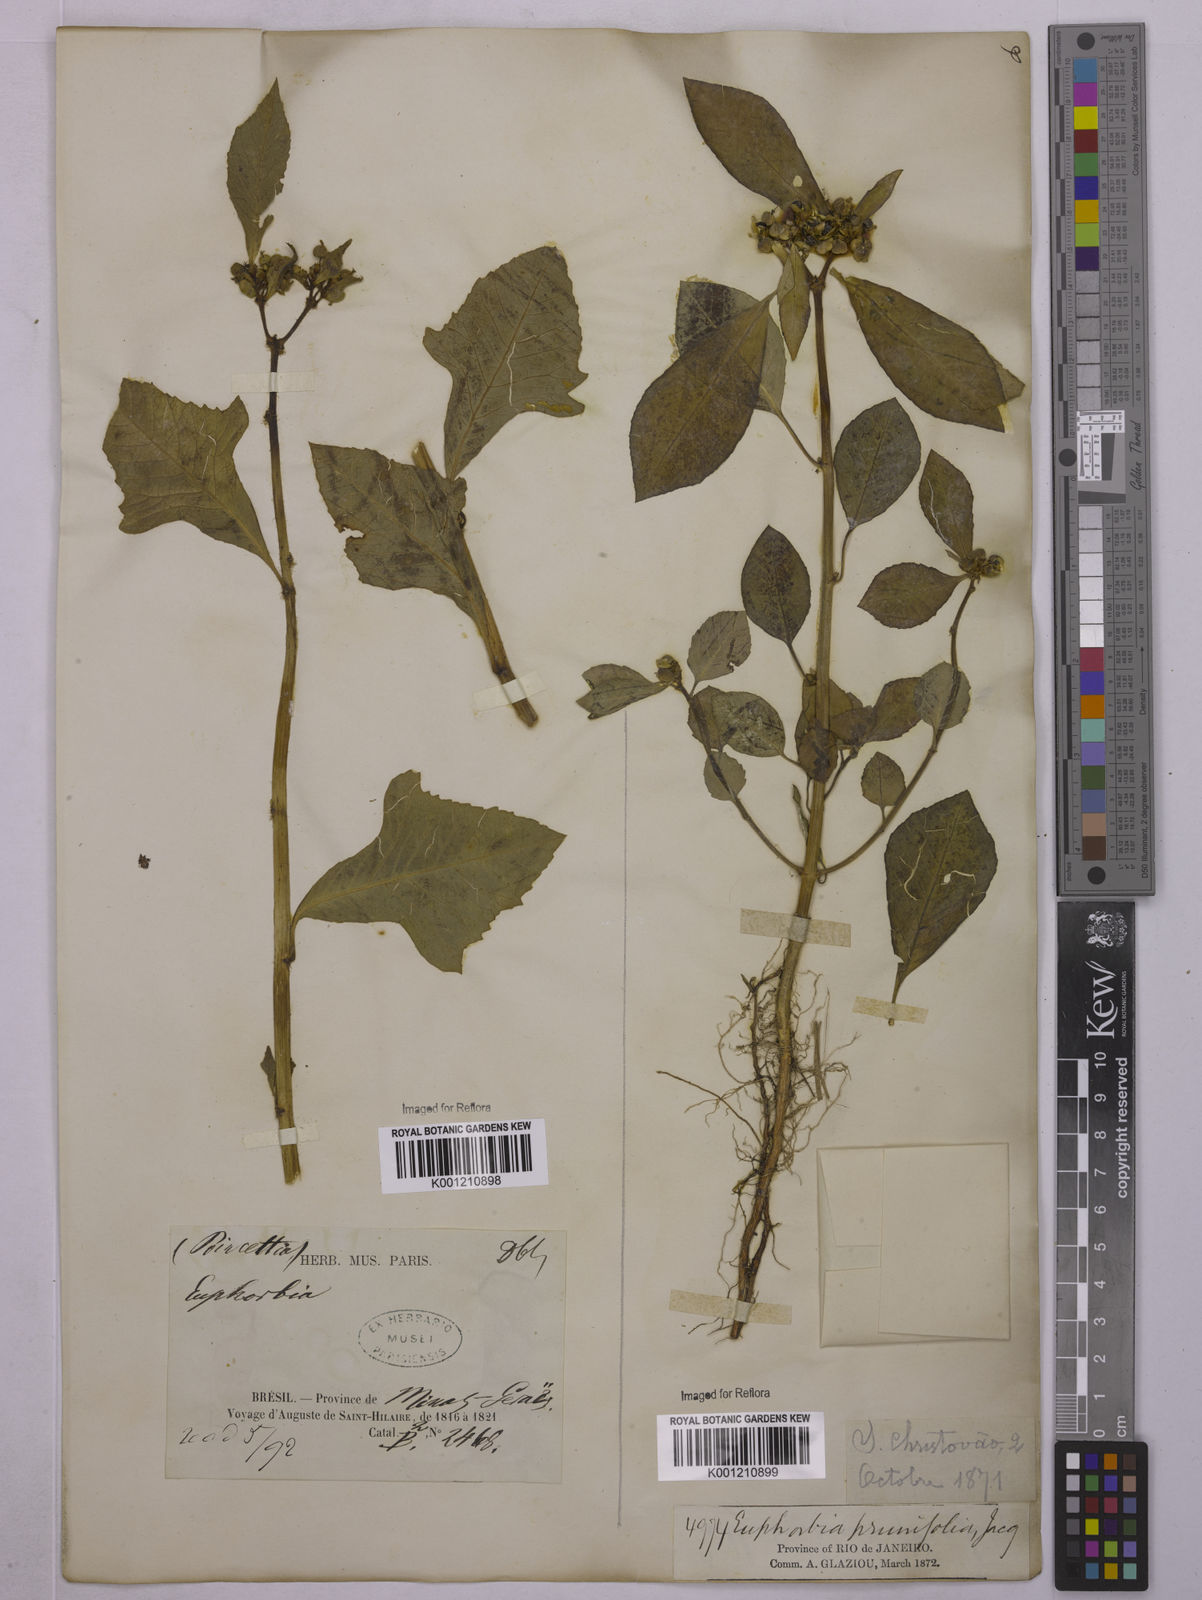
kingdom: Plantae
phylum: Tracheophyta
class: Magnoliopsida
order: Malpighiales
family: Euphorbiaceae
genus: Euphorbia
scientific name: Euphorbia heterophylla
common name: Mexican fireplant
